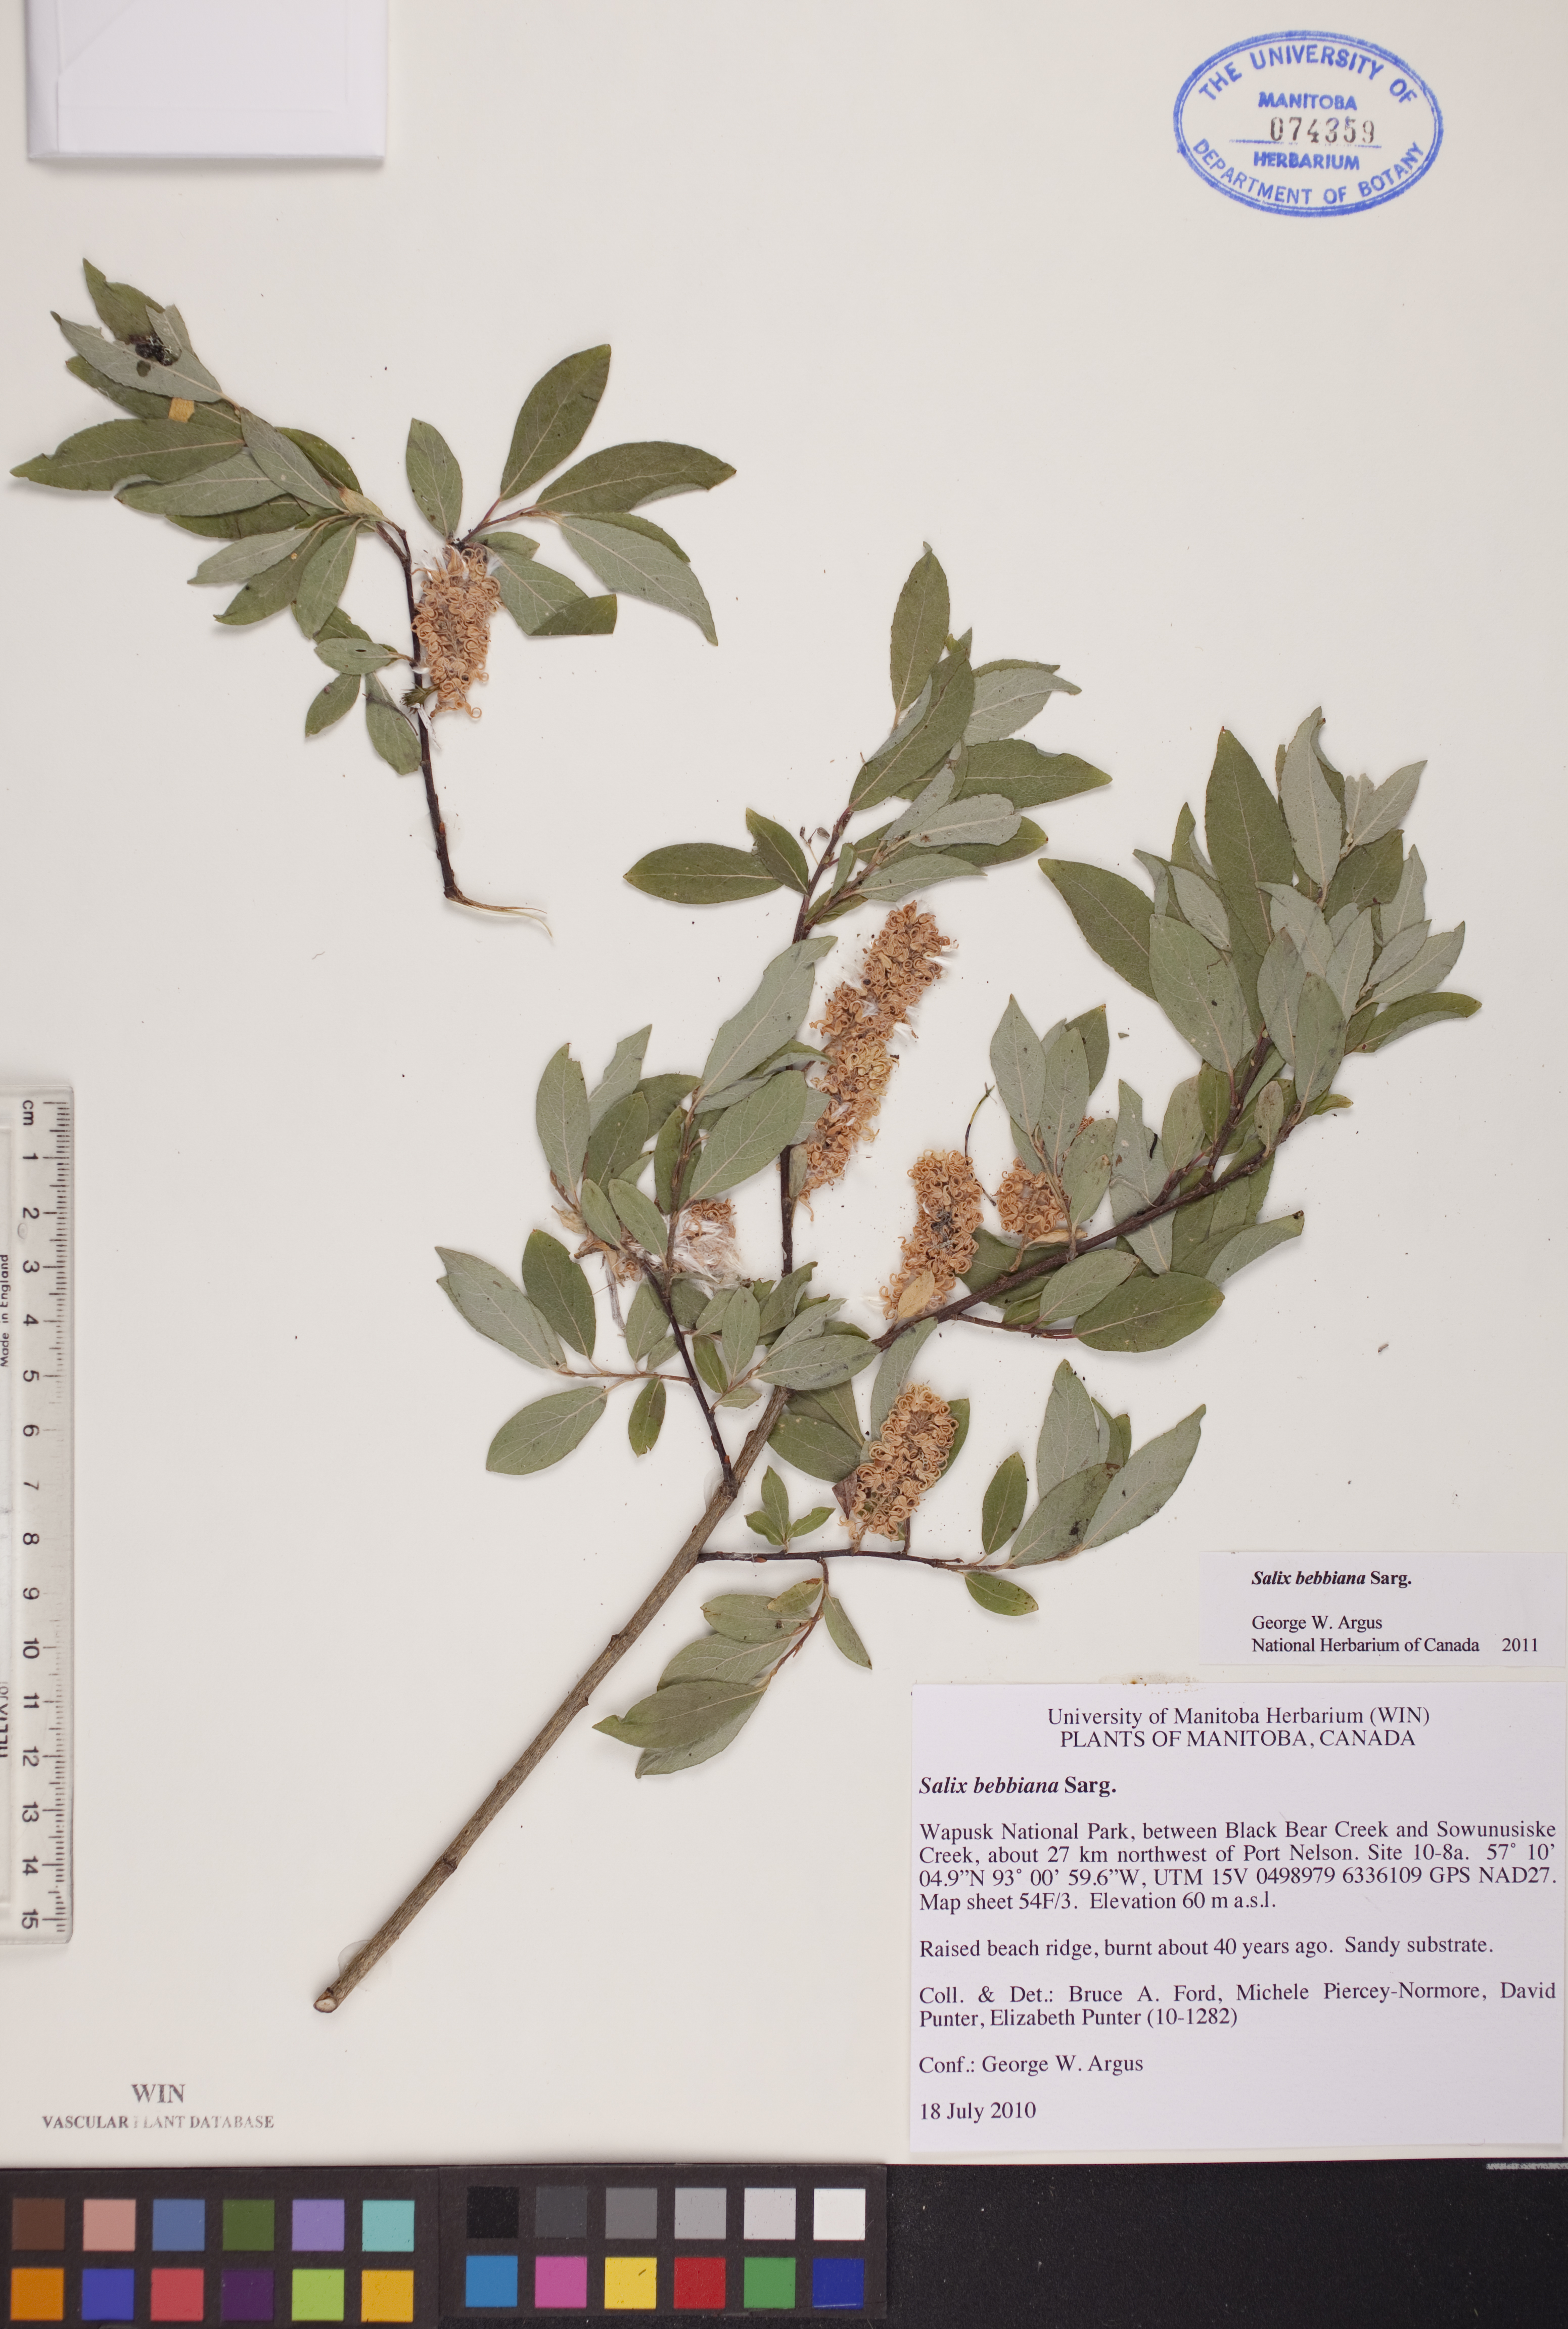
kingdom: Plantae
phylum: Tracheophyta
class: Magnoliopsida
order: Malpighiales
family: Salicaceae
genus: Salix
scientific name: Salix bebbiana
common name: Bebb's willow
